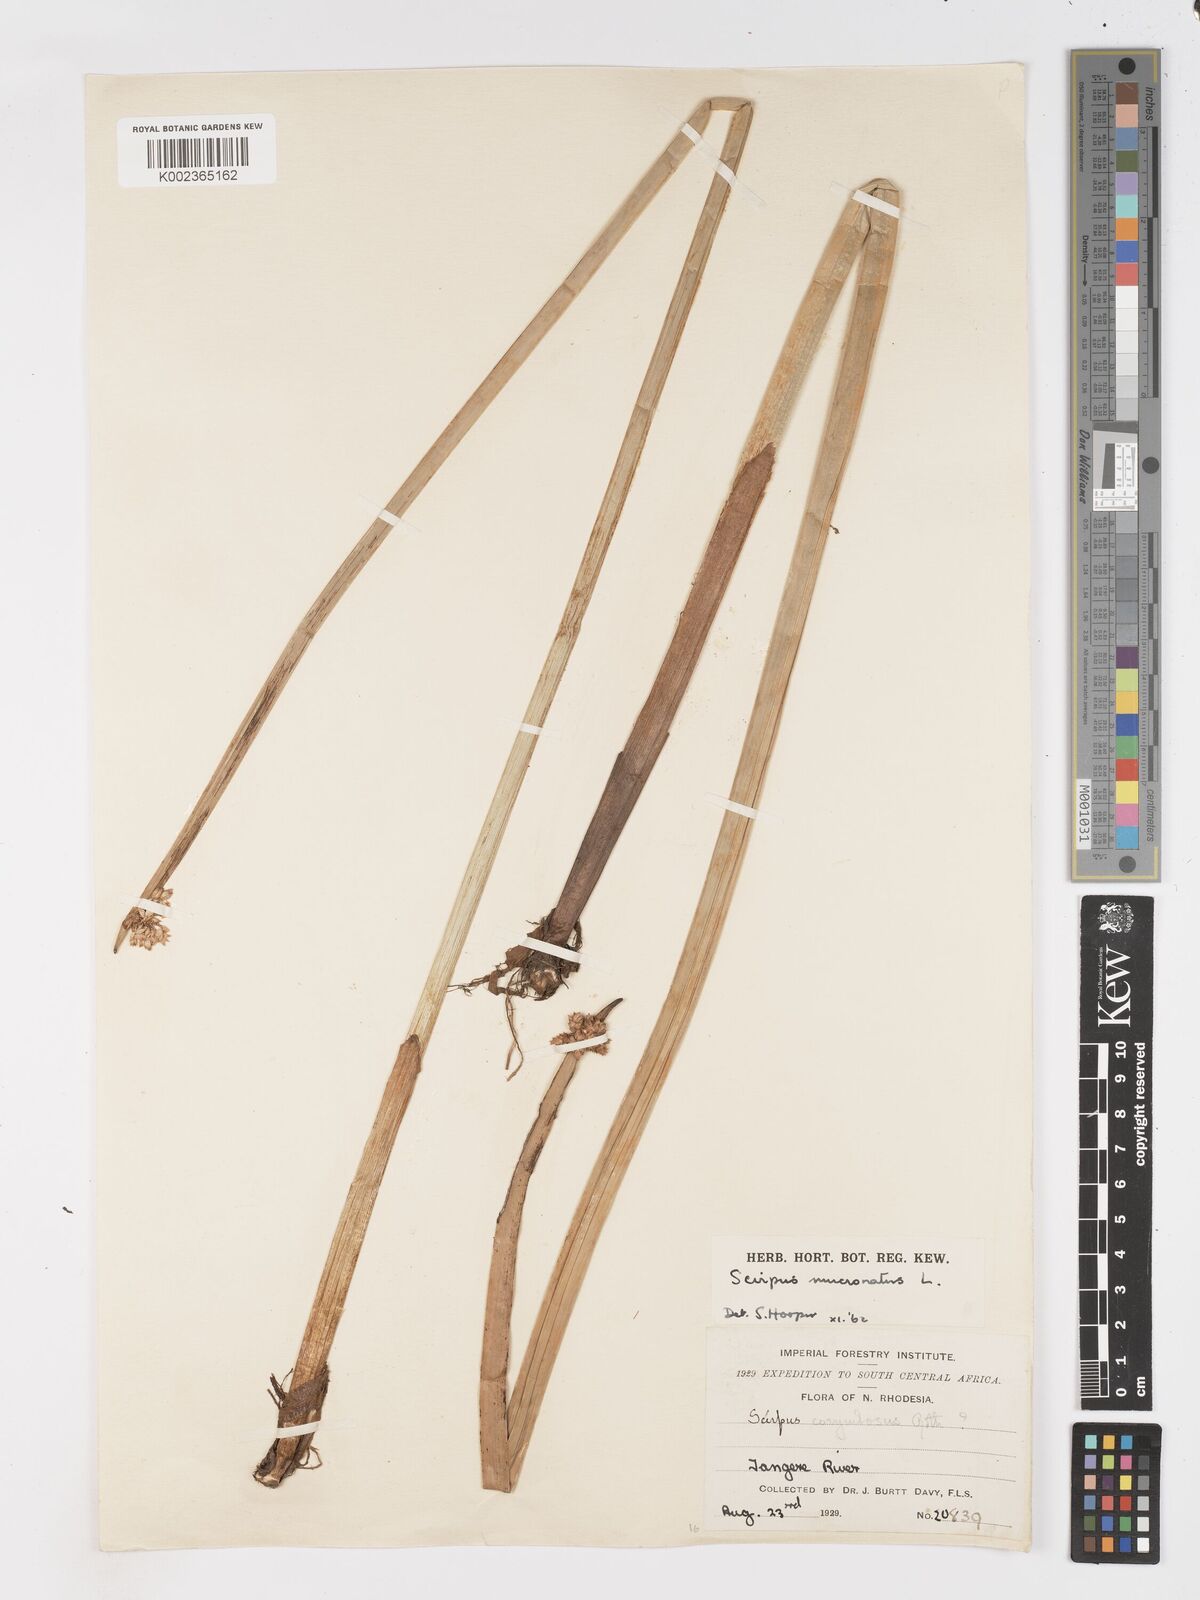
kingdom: Plantae
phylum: Tracheophyta
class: Liliopsida
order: Poales
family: Cyperaceae
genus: Schoenoplectiella
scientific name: Schoenoplectiella mucronata
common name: Bog bulrush
